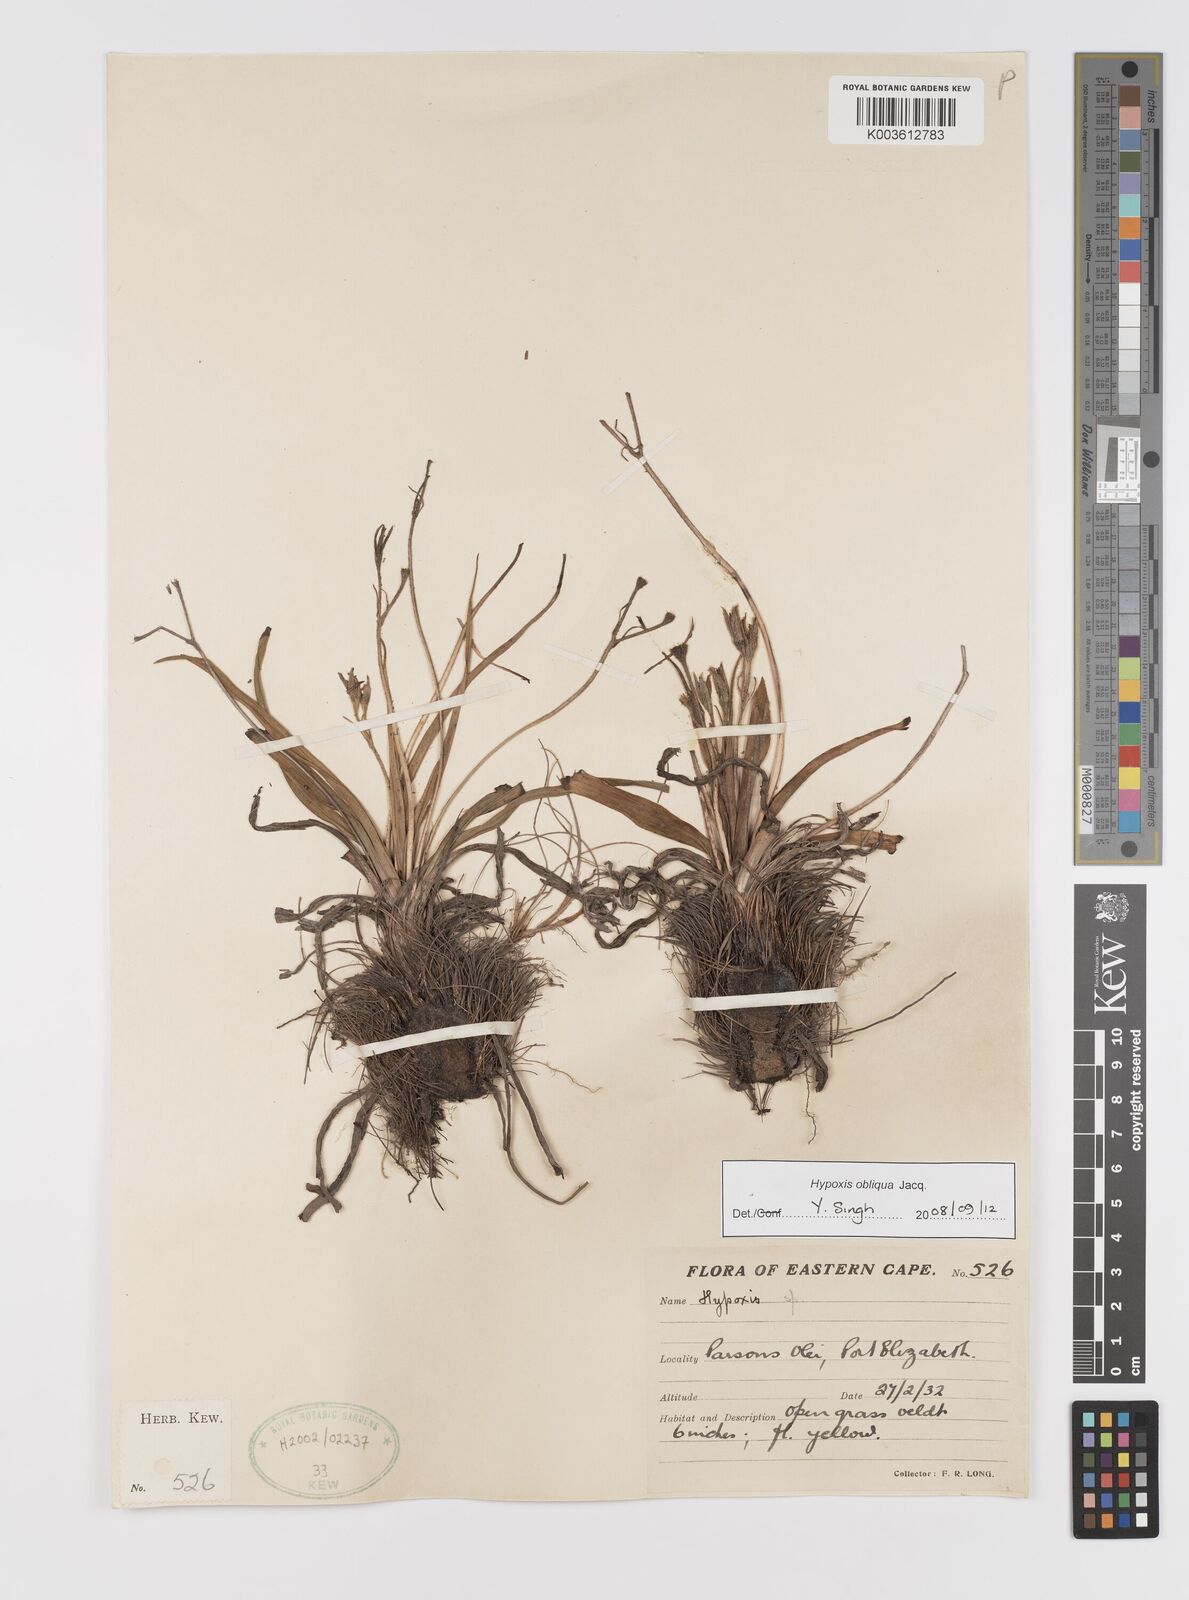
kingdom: Plantae
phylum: Tracheophyta
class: Liliopsida
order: Asparagales
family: Hypoxidaceae
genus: Hypoxis
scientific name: Hypoxis villosa
